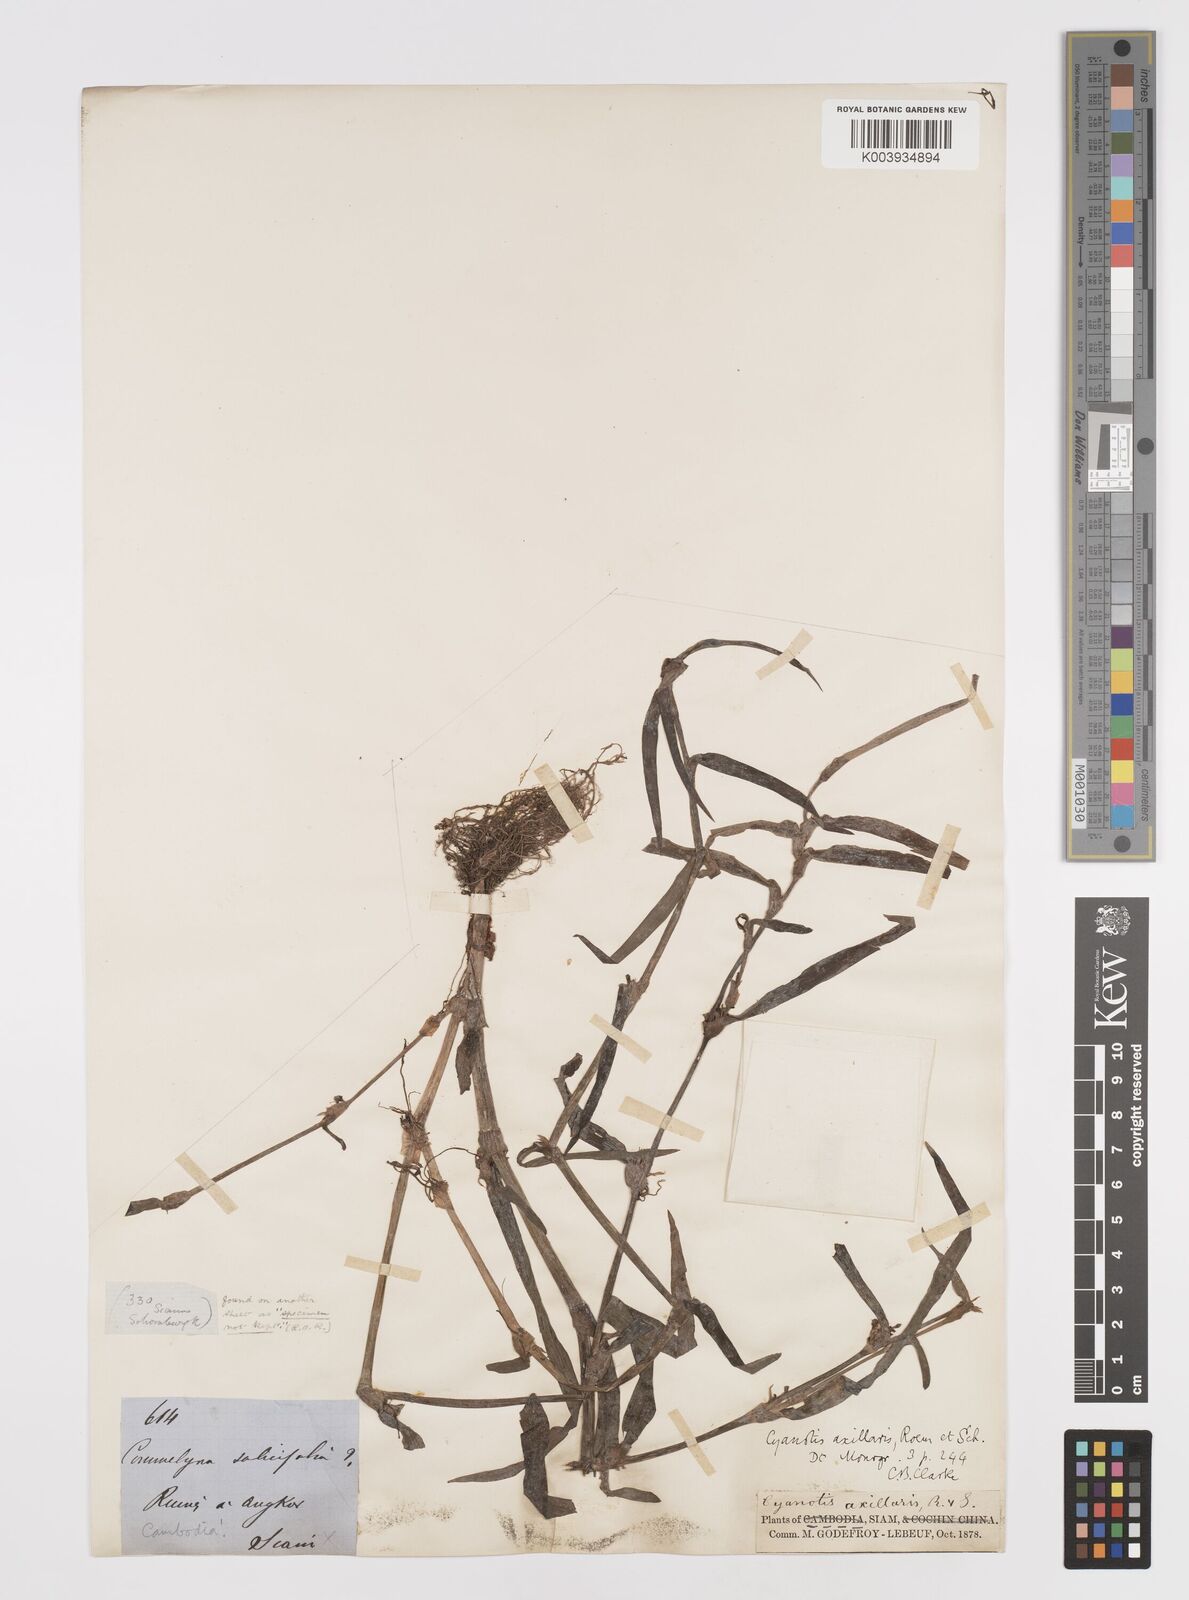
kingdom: Plantae
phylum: Tracheophyta
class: Liliopsida
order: Commelinales
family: Commelinaceae
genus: Cyanotis
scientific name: Cyanotis axillaris
